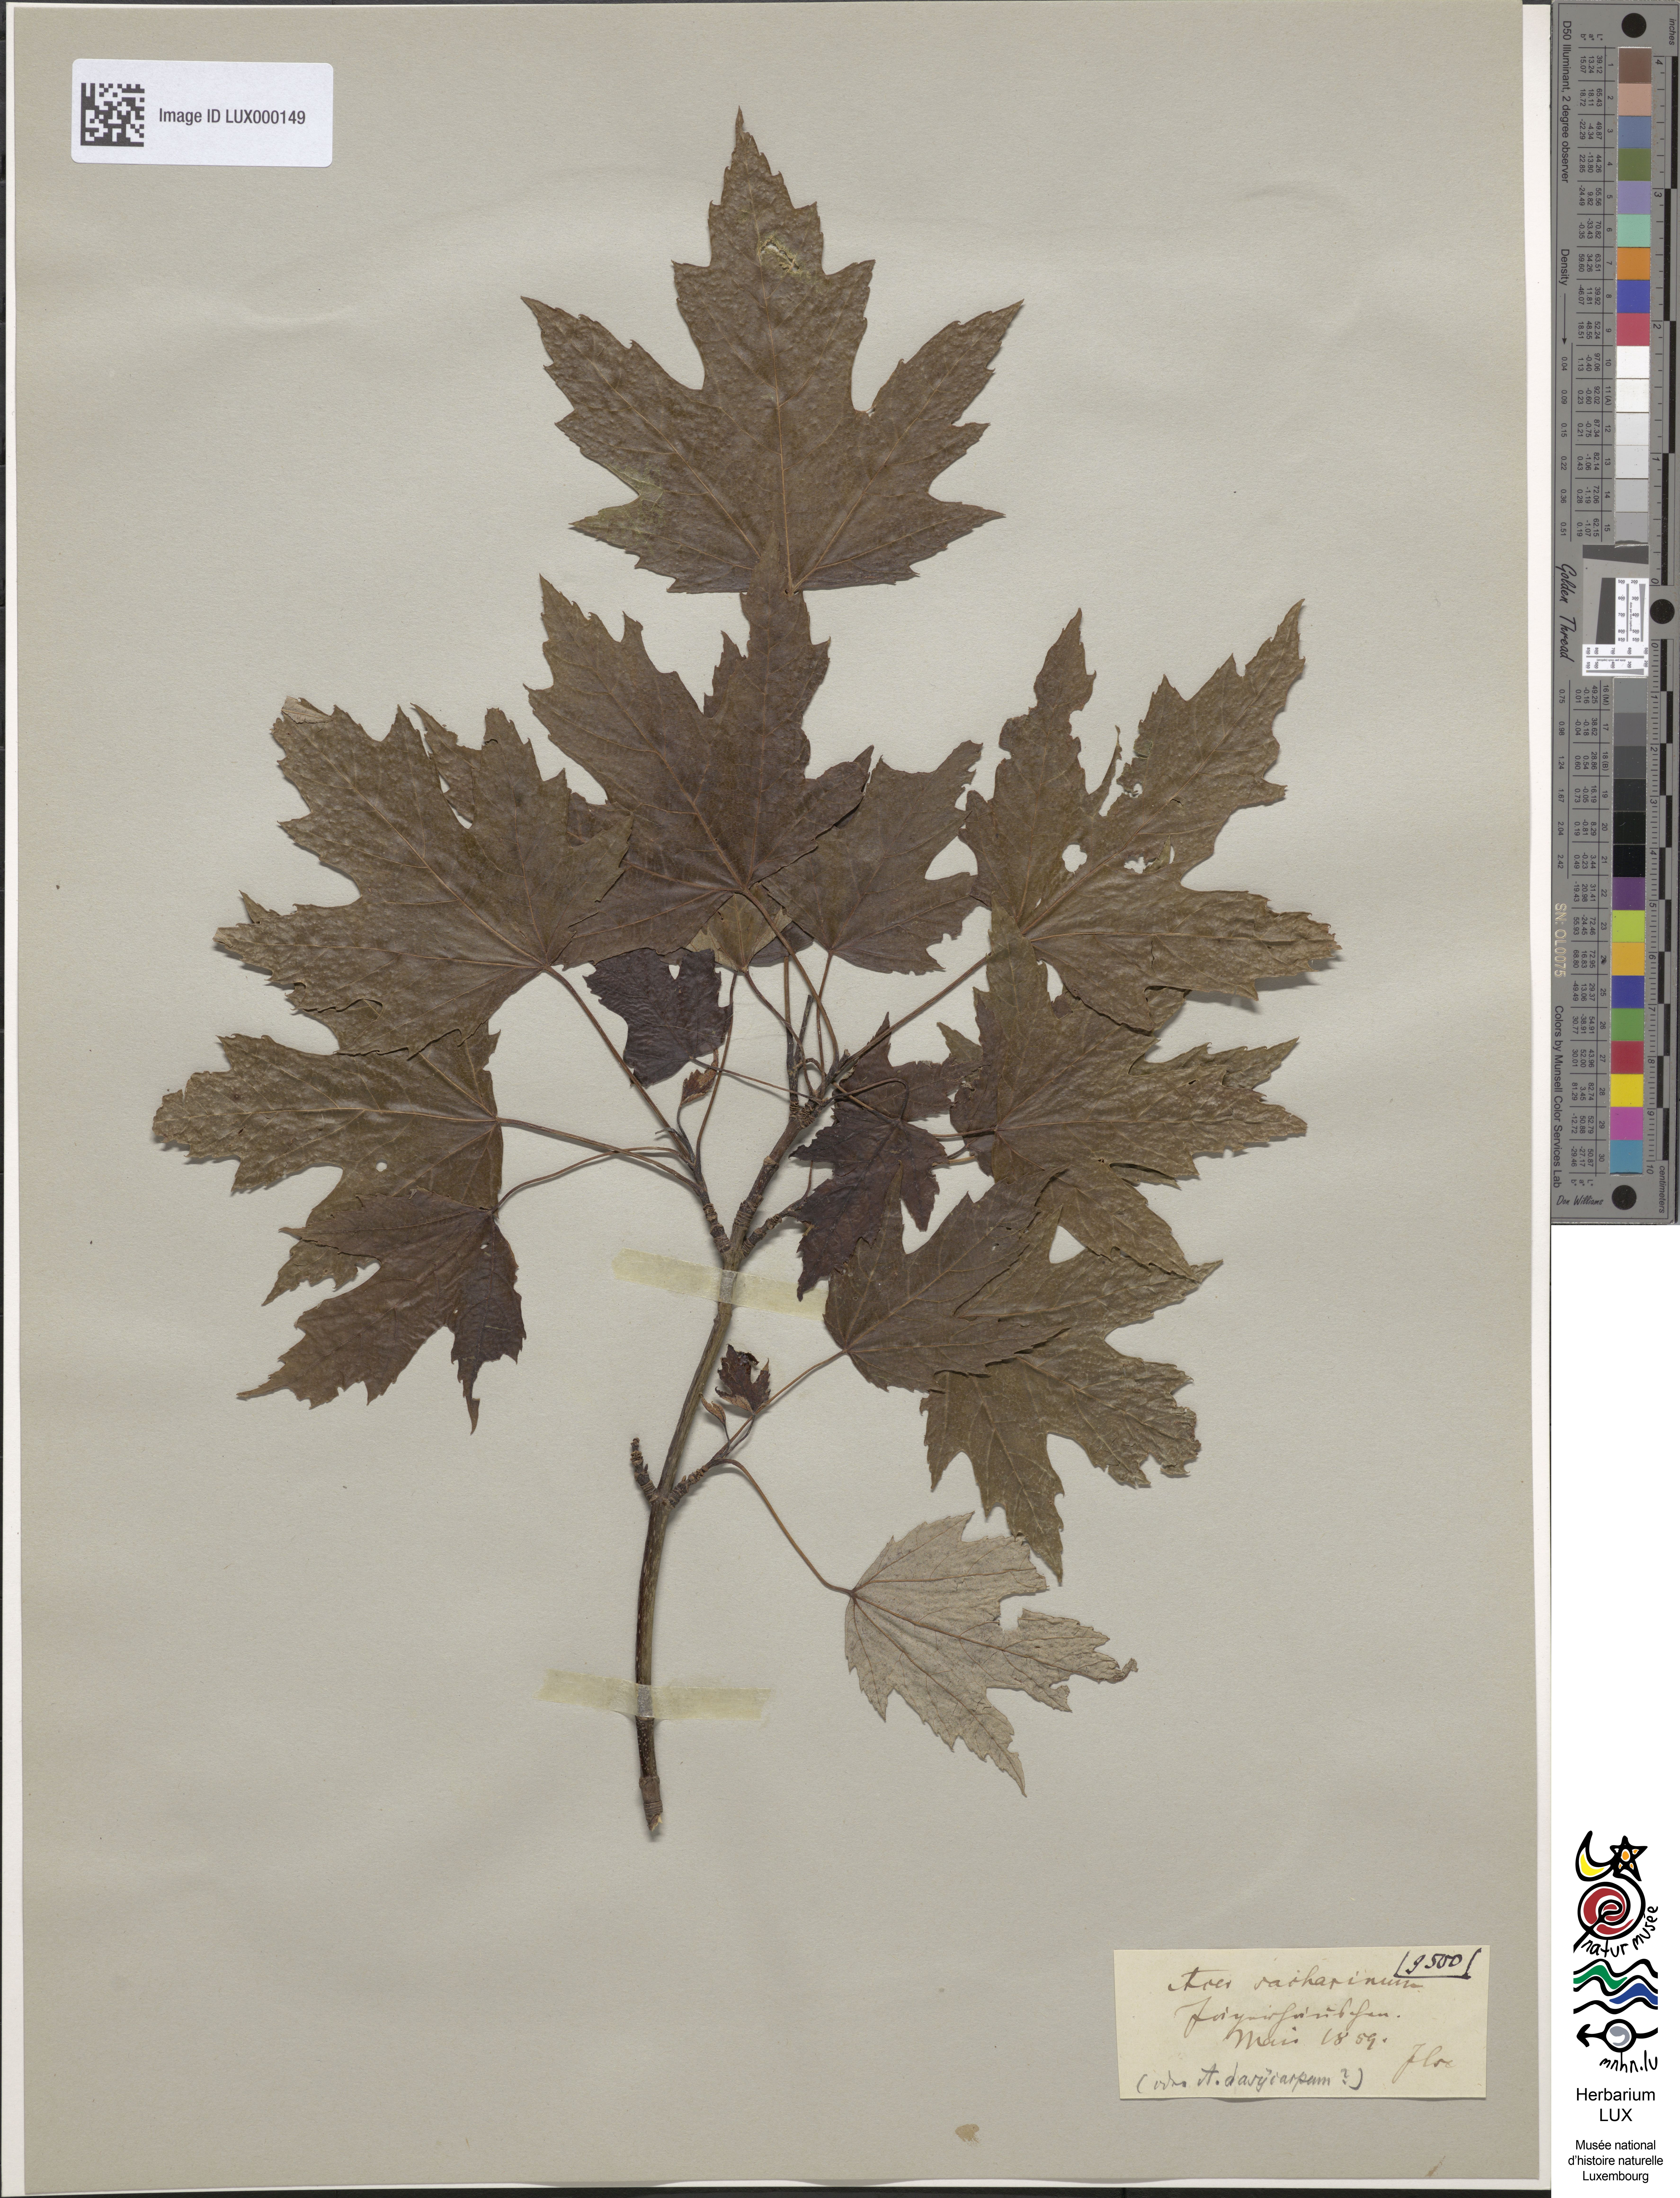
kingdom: Plantae
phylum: Tracheophyta
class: Magnoliopsida
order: Sapindales
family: Sapindaceae
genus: Acer
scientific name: Acer saccharinum
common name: Silver maple
